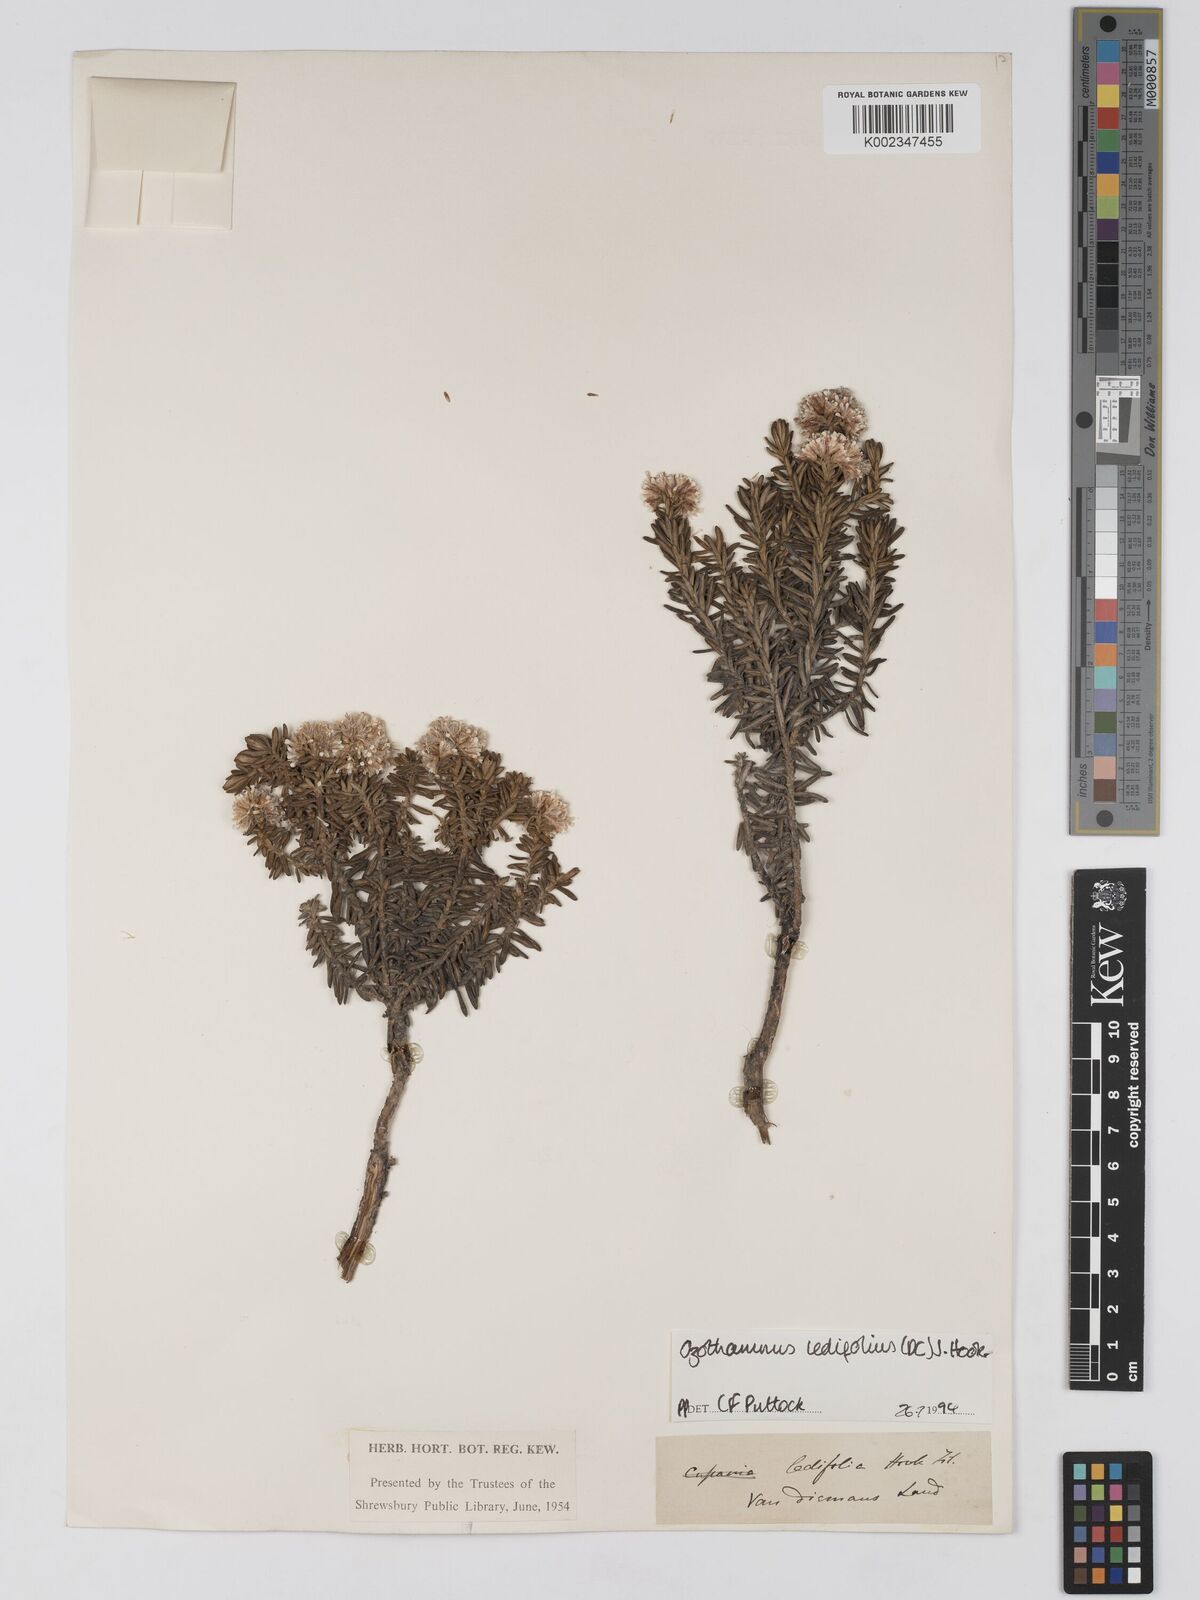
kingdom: Plantae
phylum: Tracheophyta
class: Magnoliopsida
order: Asterales
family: Asteraceae
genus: Ozothamnus
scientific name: Ozothamnus ledifolius
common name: Kerosene-weed
